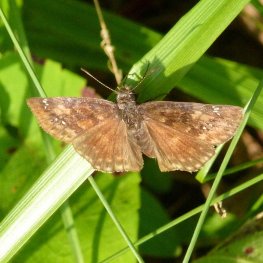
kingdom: Animalia
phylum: Arthropoda
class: Insecta
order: Lepidoptera
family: Hesperiidae
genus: Gesta
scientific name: Gesta
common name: Wild Indigo Duskywing
